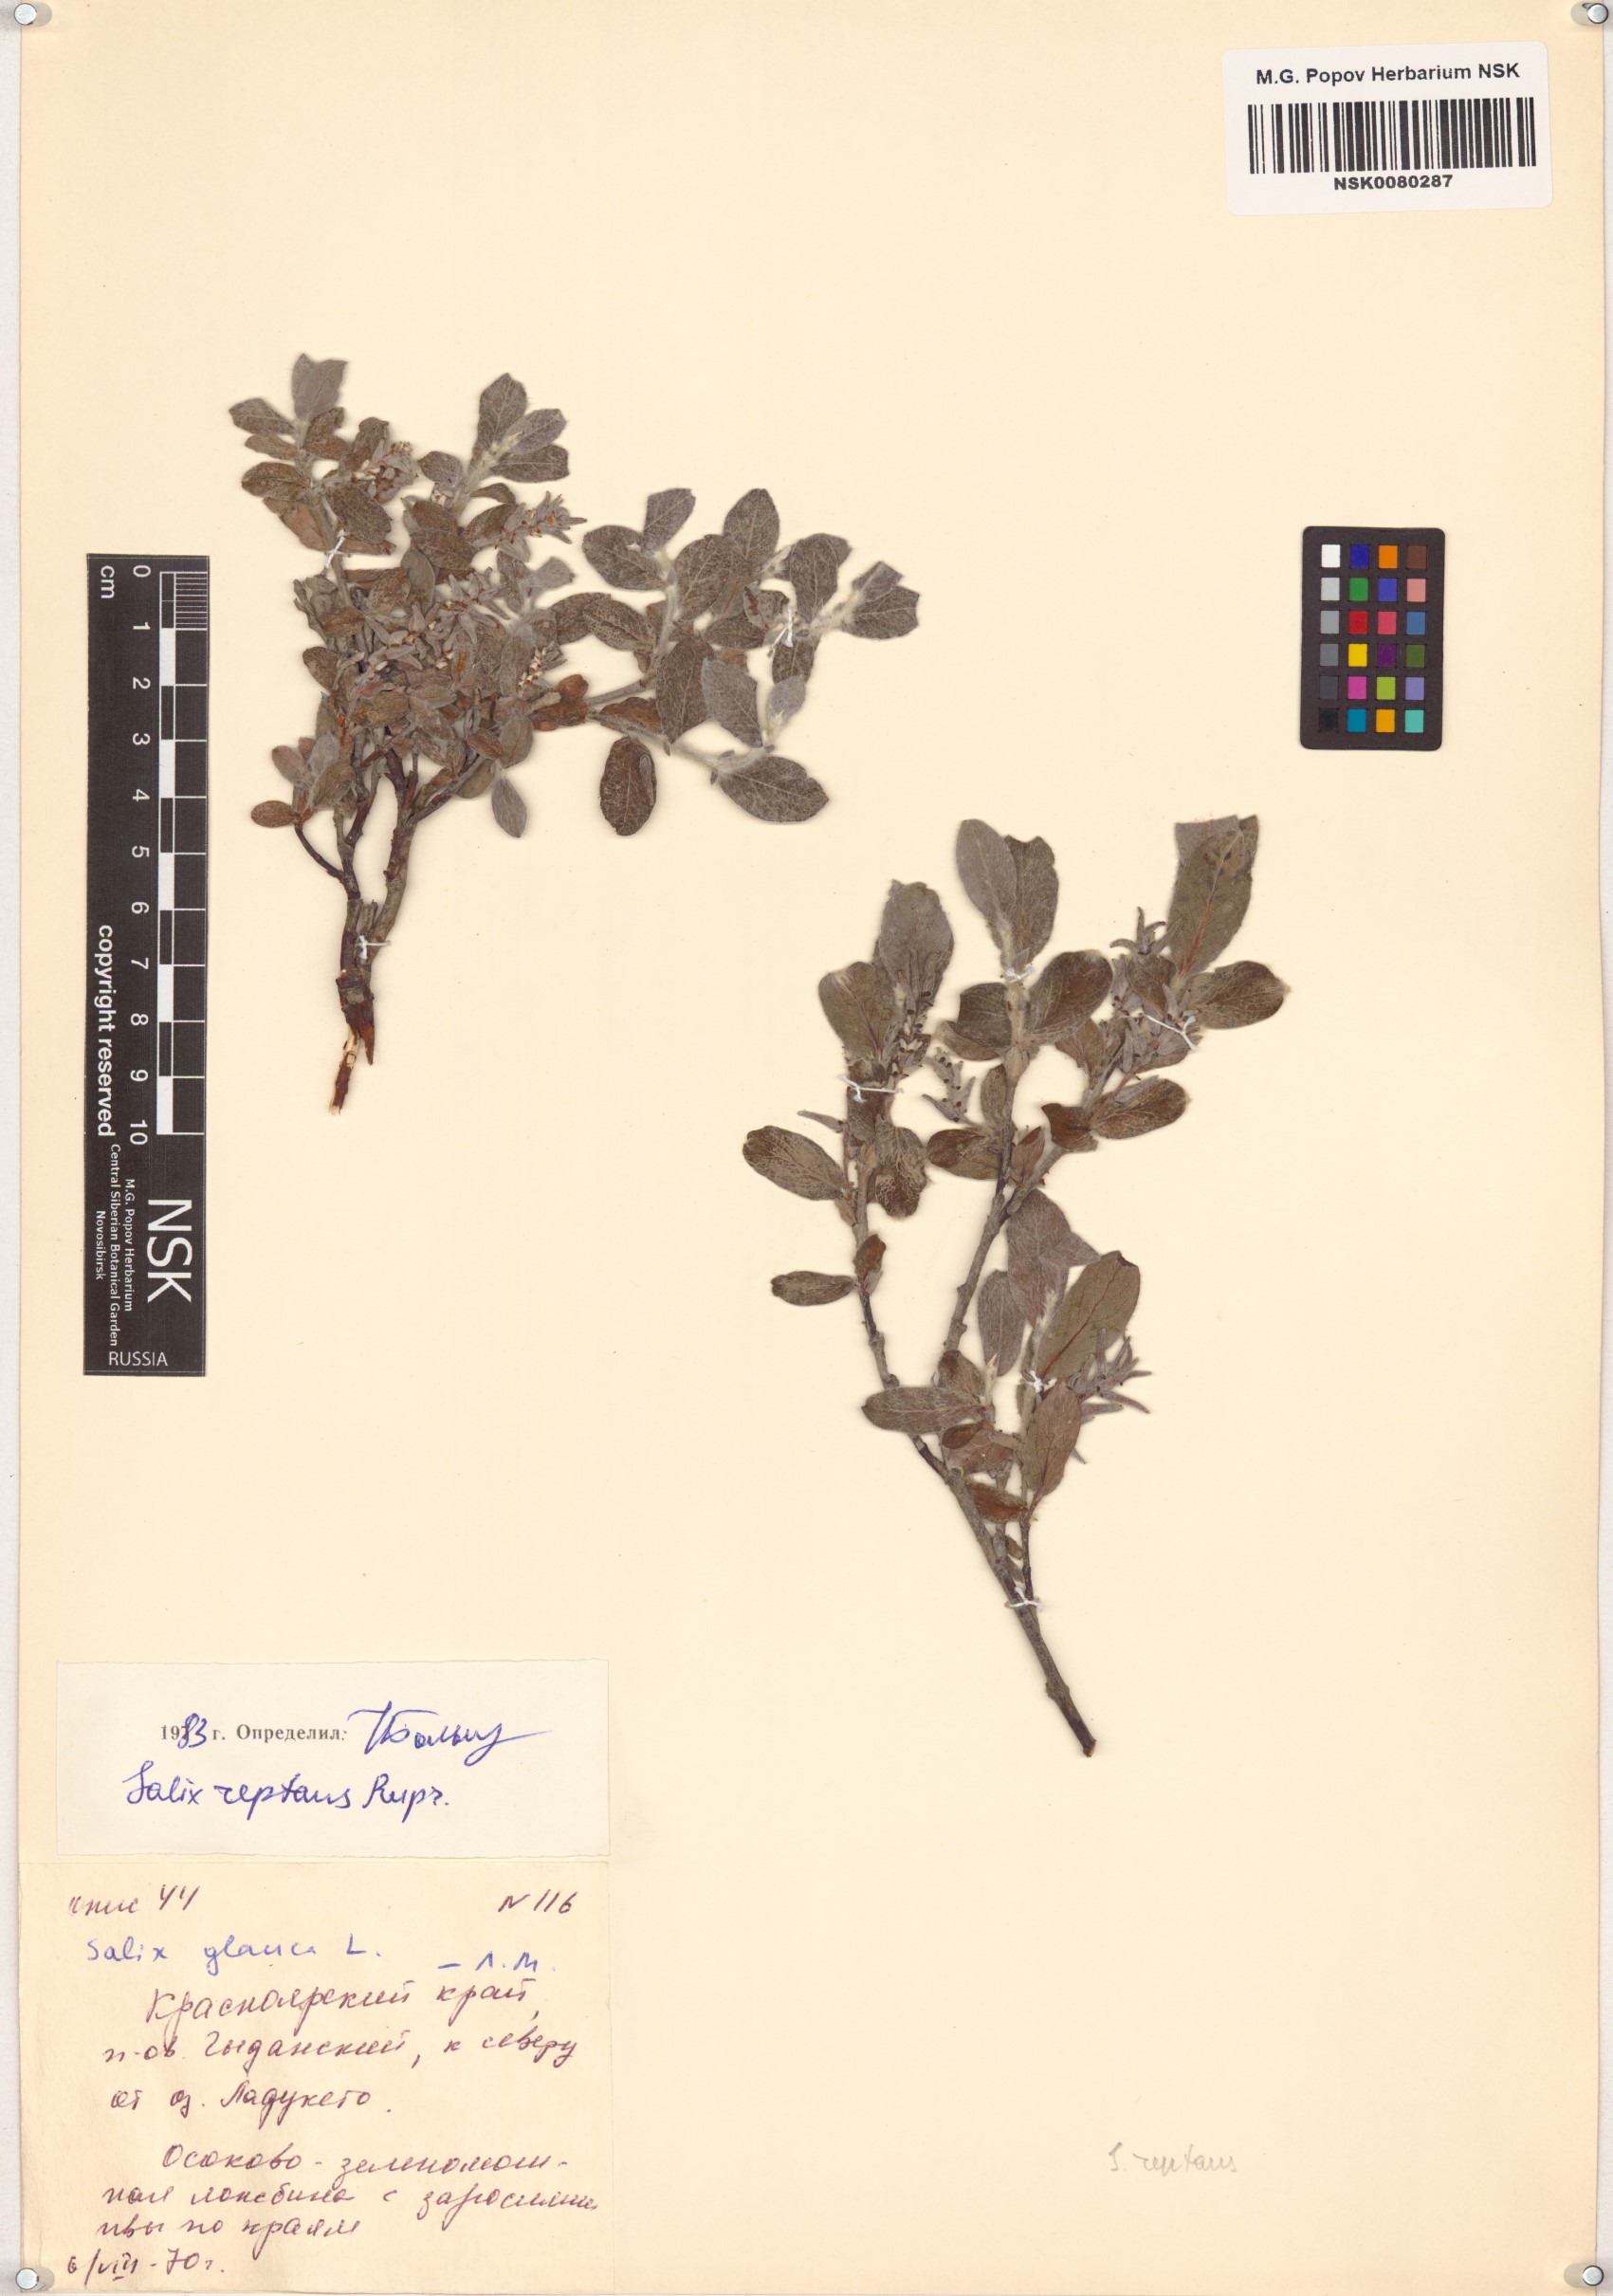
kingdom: Plantae
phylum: Tracheophyta
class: Magnoliopsida
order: Malpighiales
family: Salicaceae
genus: Salix
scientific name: Salix reptans
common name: Arctic creeping willow
